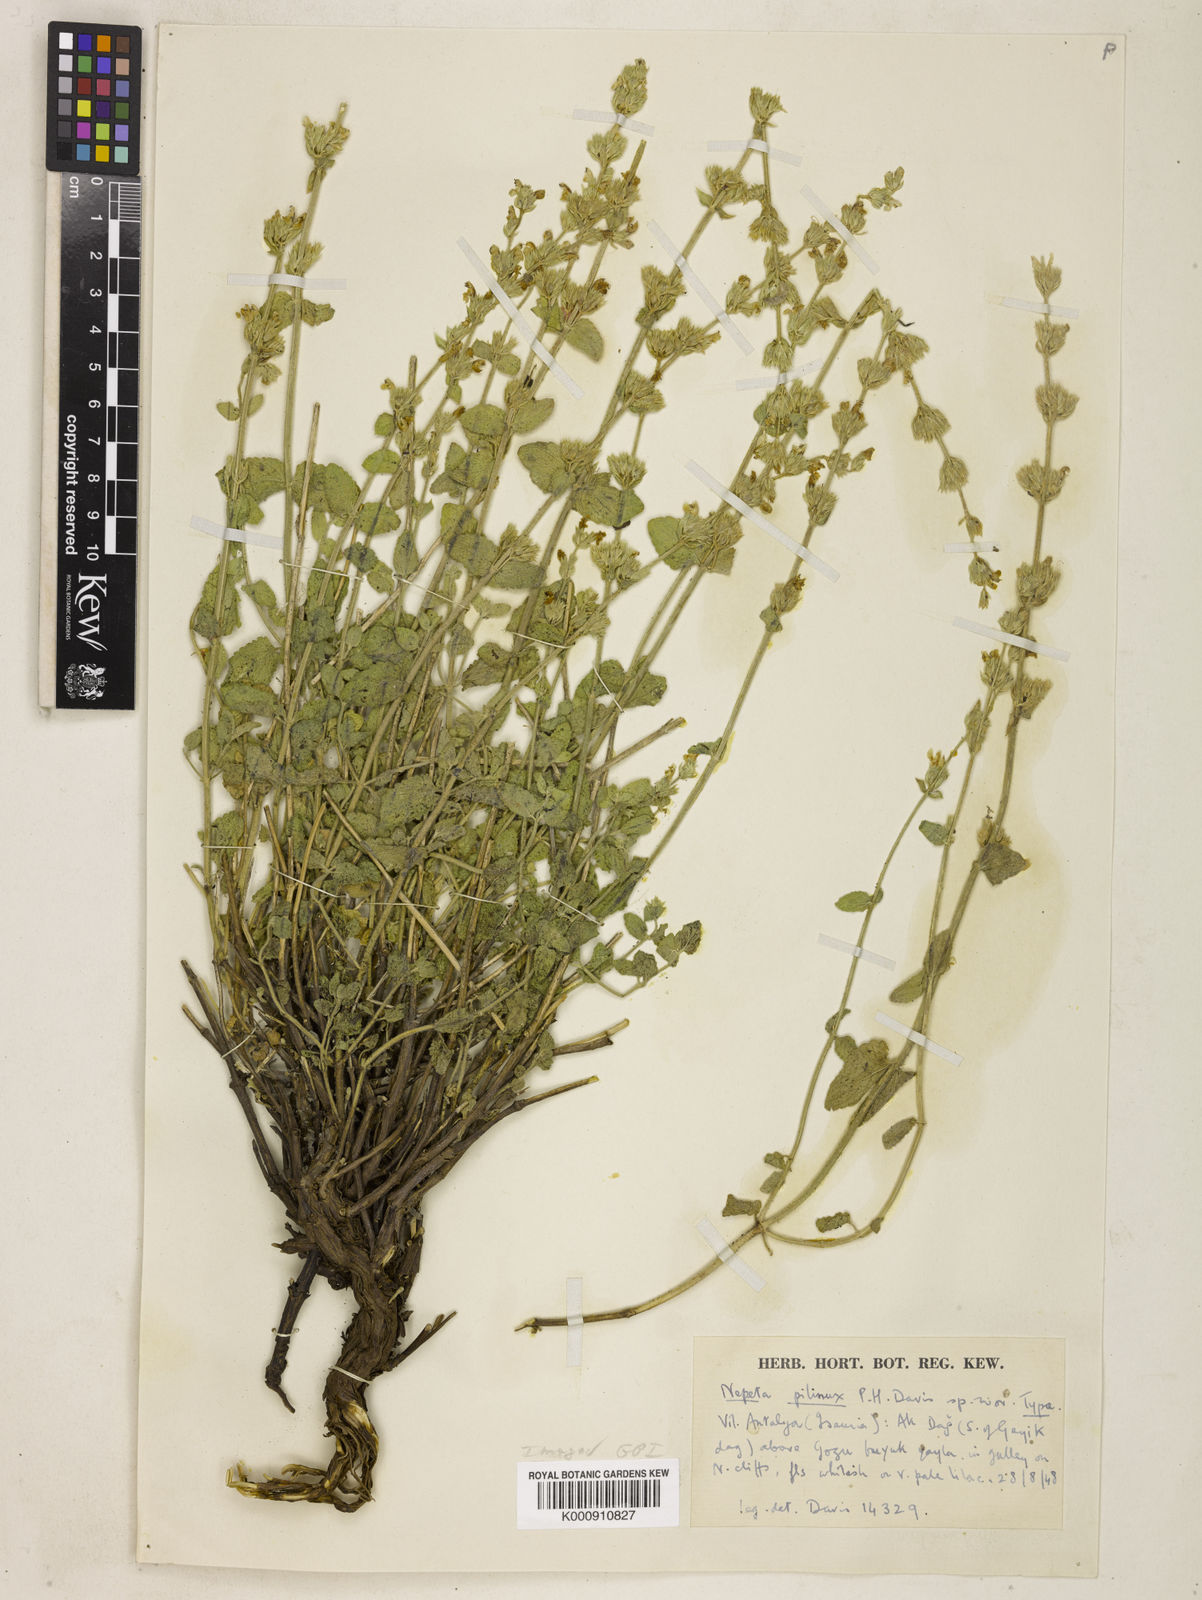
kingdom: Plantae
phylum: Tracheophyta
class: Magnoliopsida
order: Lamiales
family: Lamiaceae
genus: Nepeta
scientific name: Nepeta pilinux
